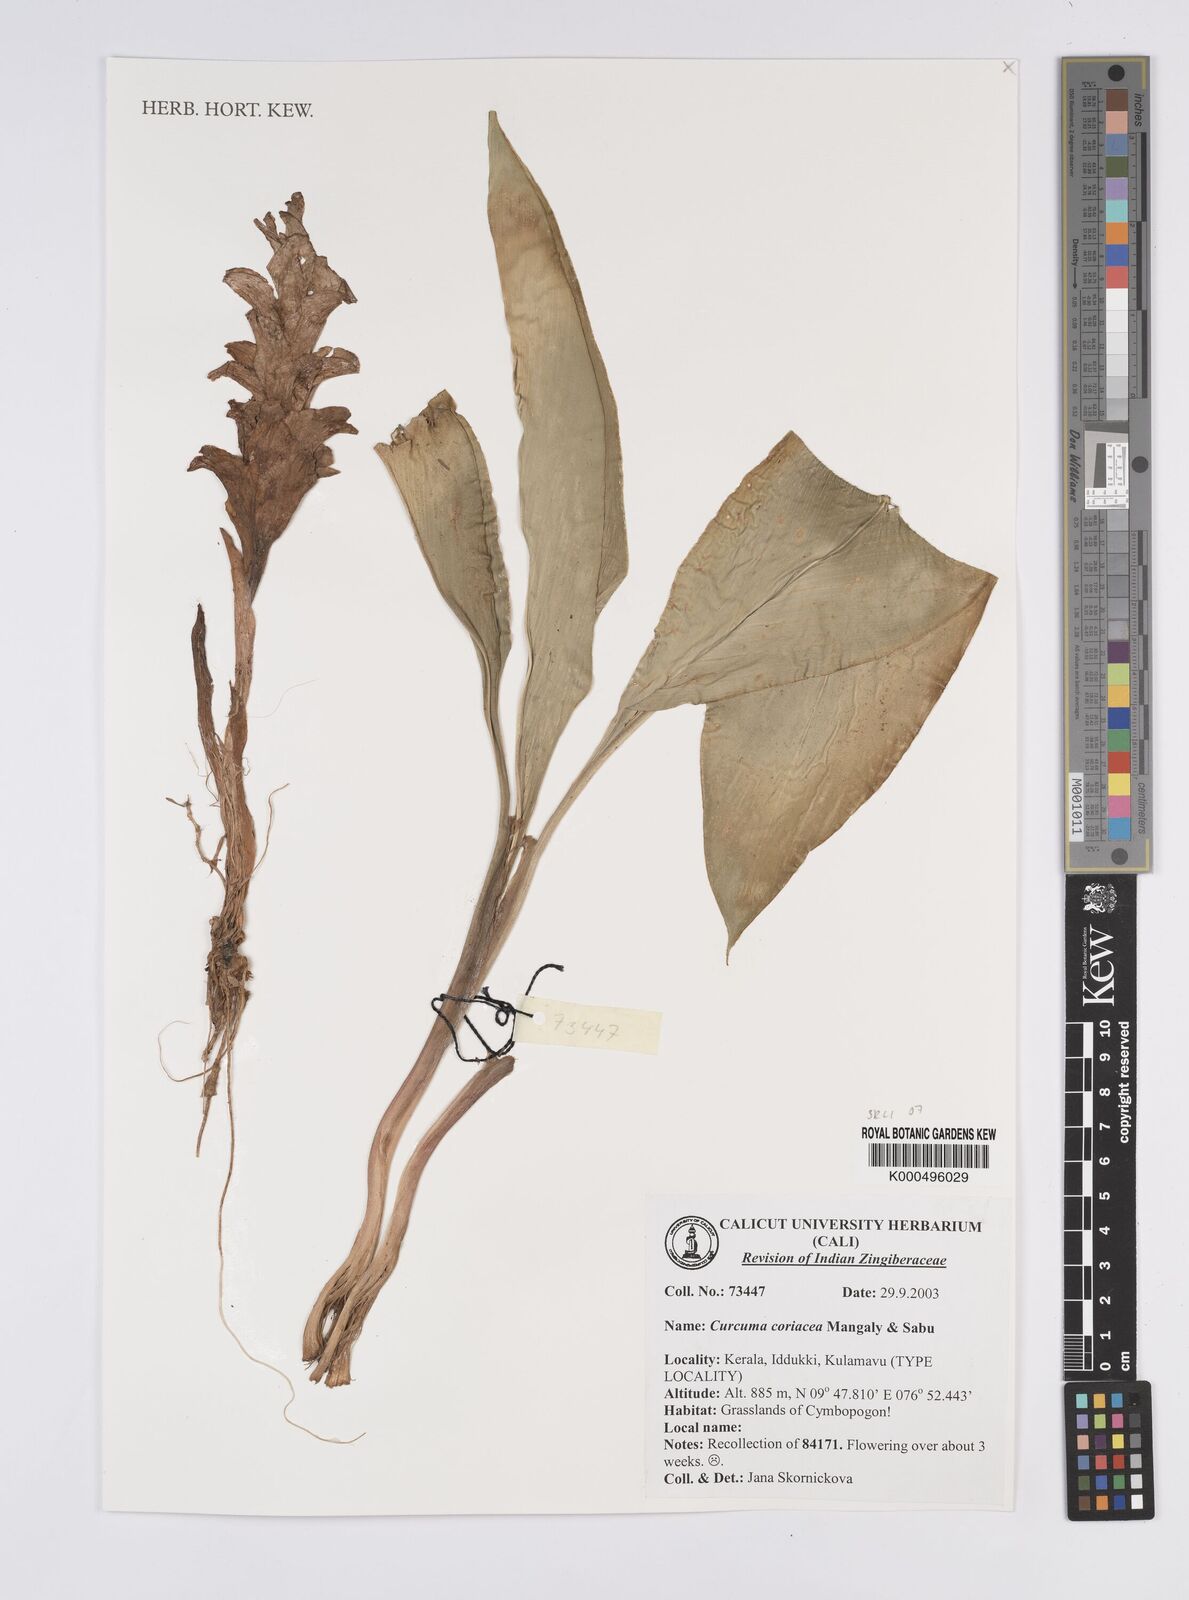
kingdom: Plantae
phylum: Tracheophyta
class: Liliopsida
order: Zingiberales
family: Zingiberaceae
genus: Curcuma
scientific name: Curcuma coriacea
